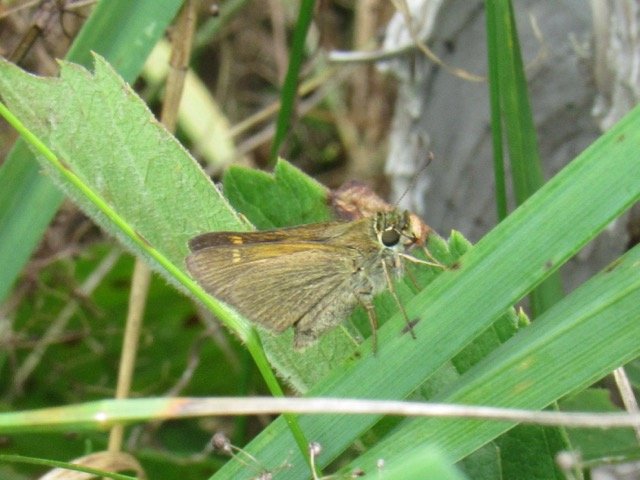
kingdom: Animalia
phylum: Arthropoda
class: Insecta
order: Lepidoptera
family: Hesperiidae
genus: Polites
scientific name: Polites themistocles
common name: Tawny-edged Skipper
